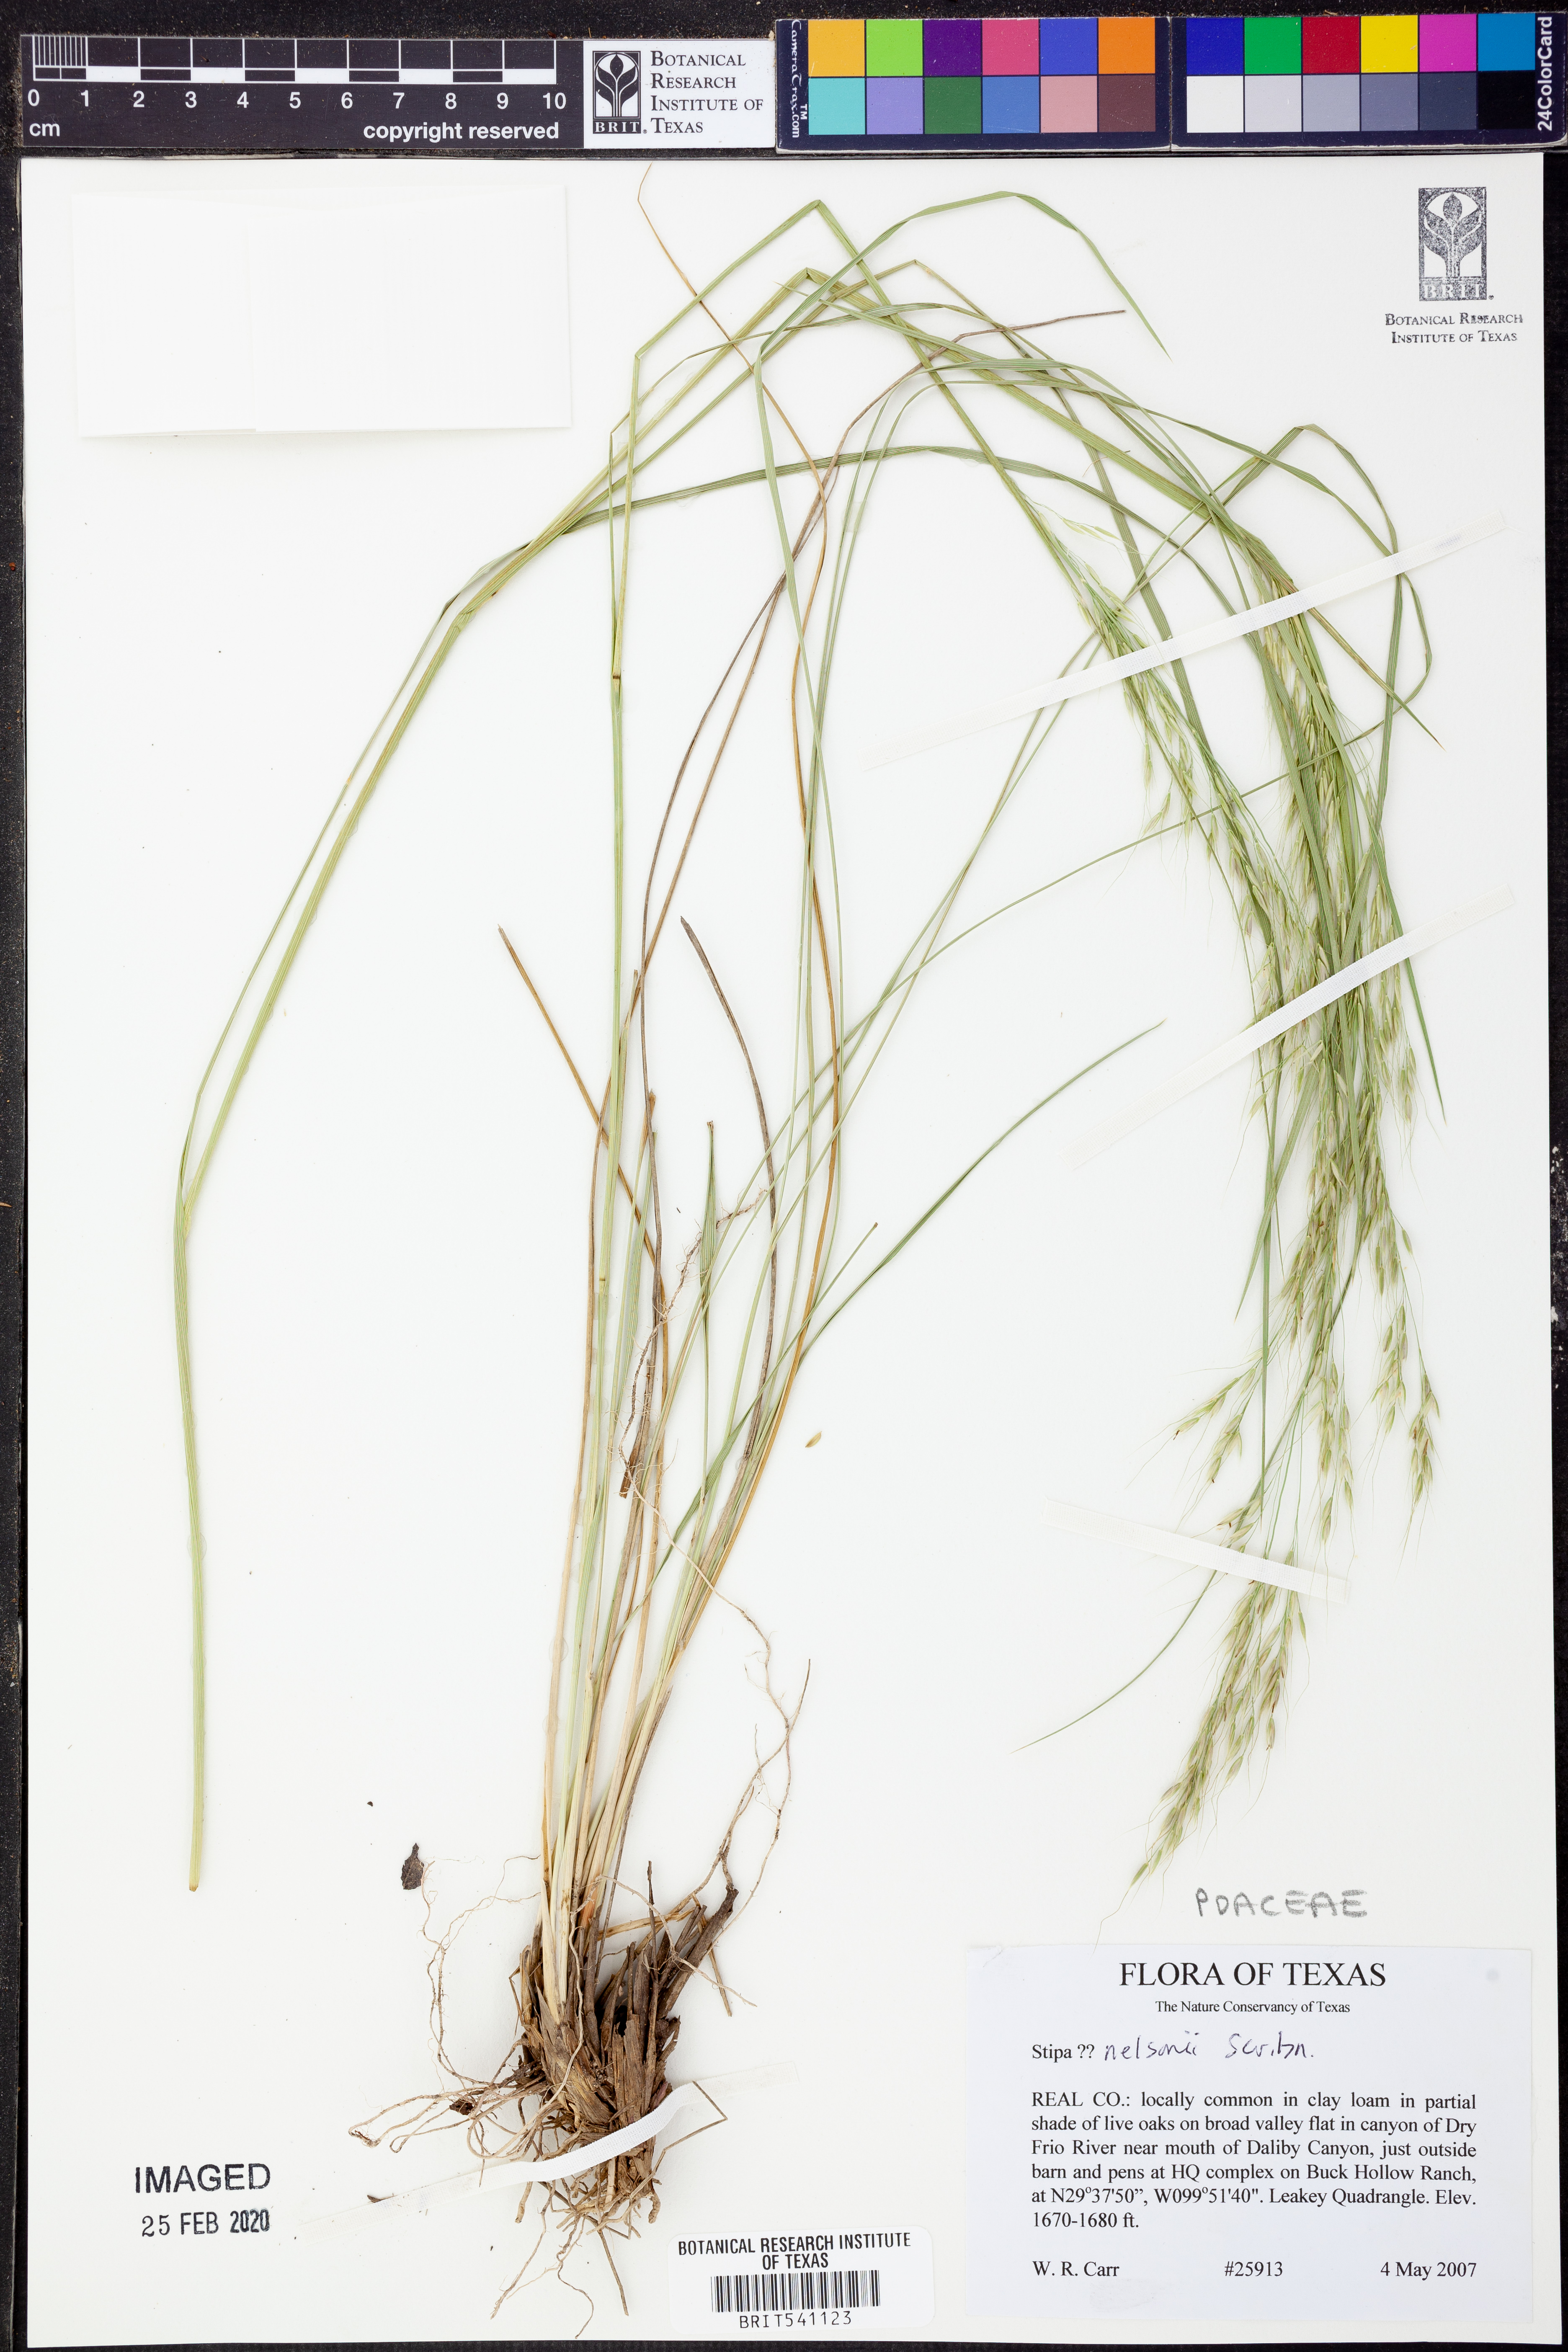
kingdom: Plantae
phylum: Tracheophyta
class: Liliopsida
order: Poales
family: Poaceae
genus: Eriocoma
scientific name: Eriocoma nelsonii
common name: Nelson's needlegrass
